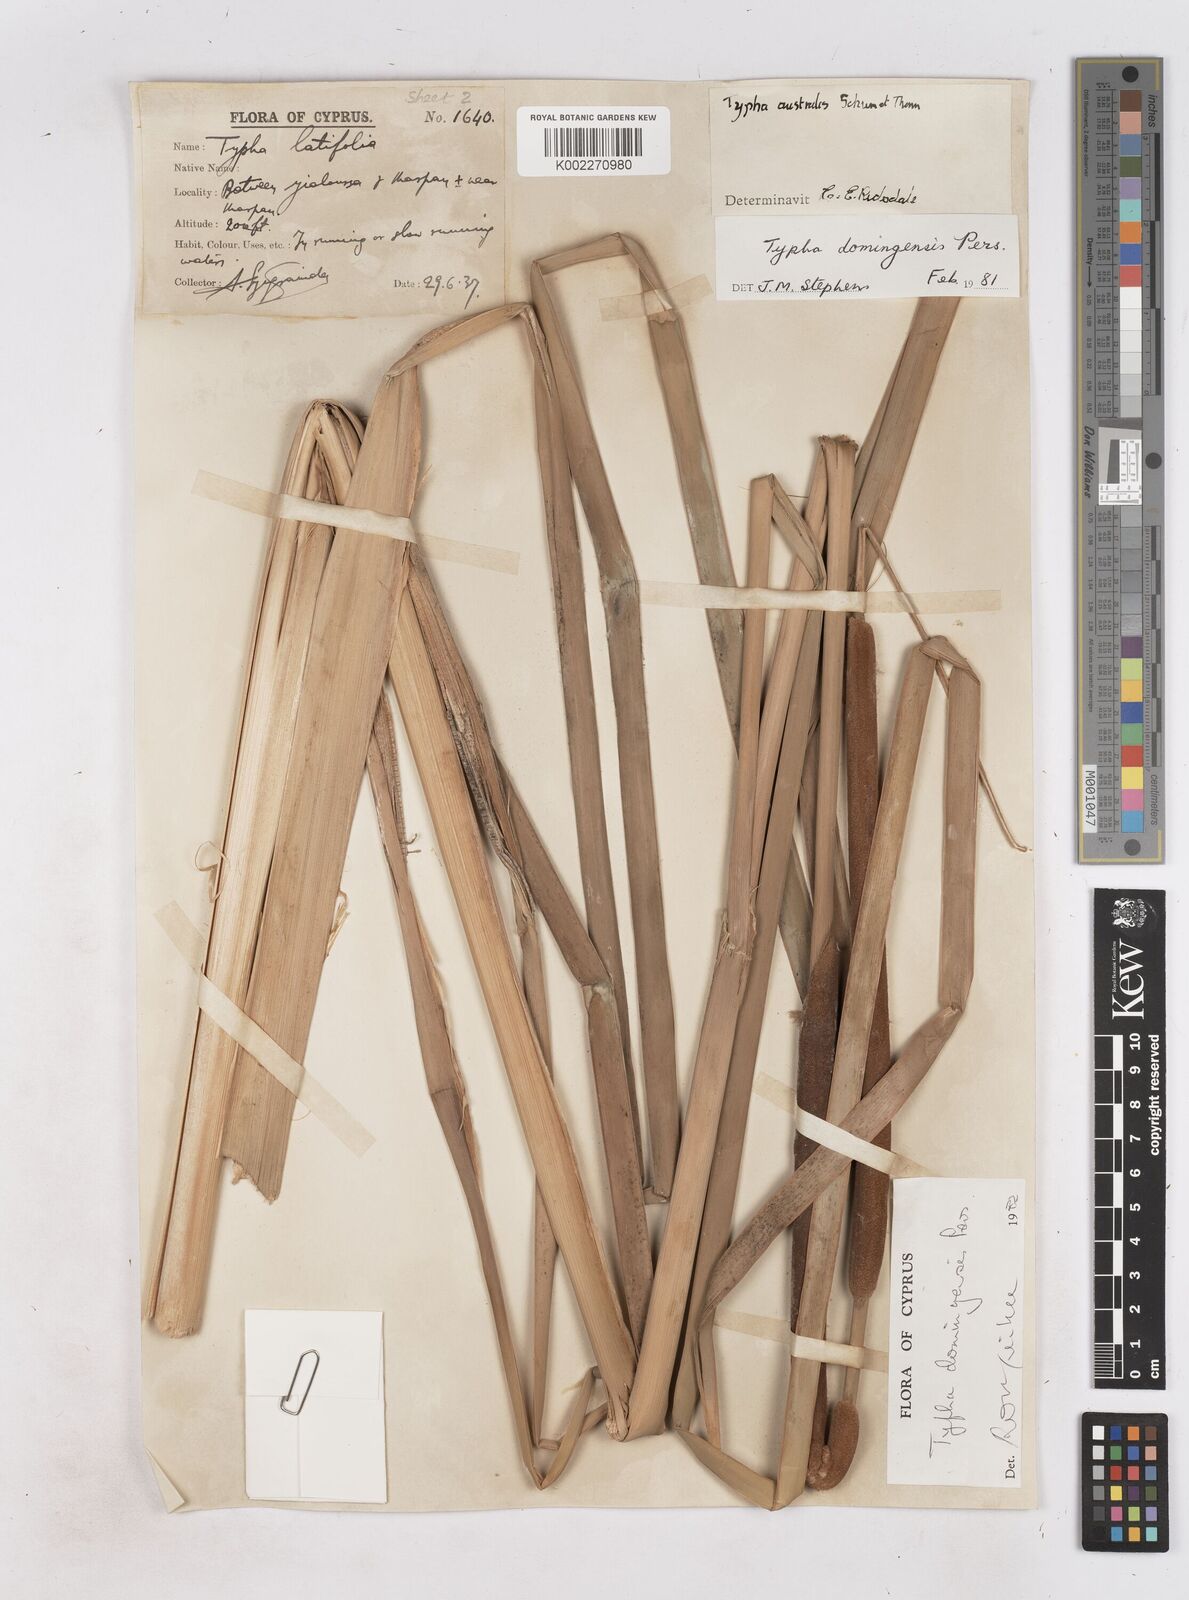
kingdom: Plantae
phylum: Tracheophyta
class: Liliopsida
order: Poales
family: Typhaceae
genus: Typha
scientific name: Typha domingensis
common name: Southern cattail
